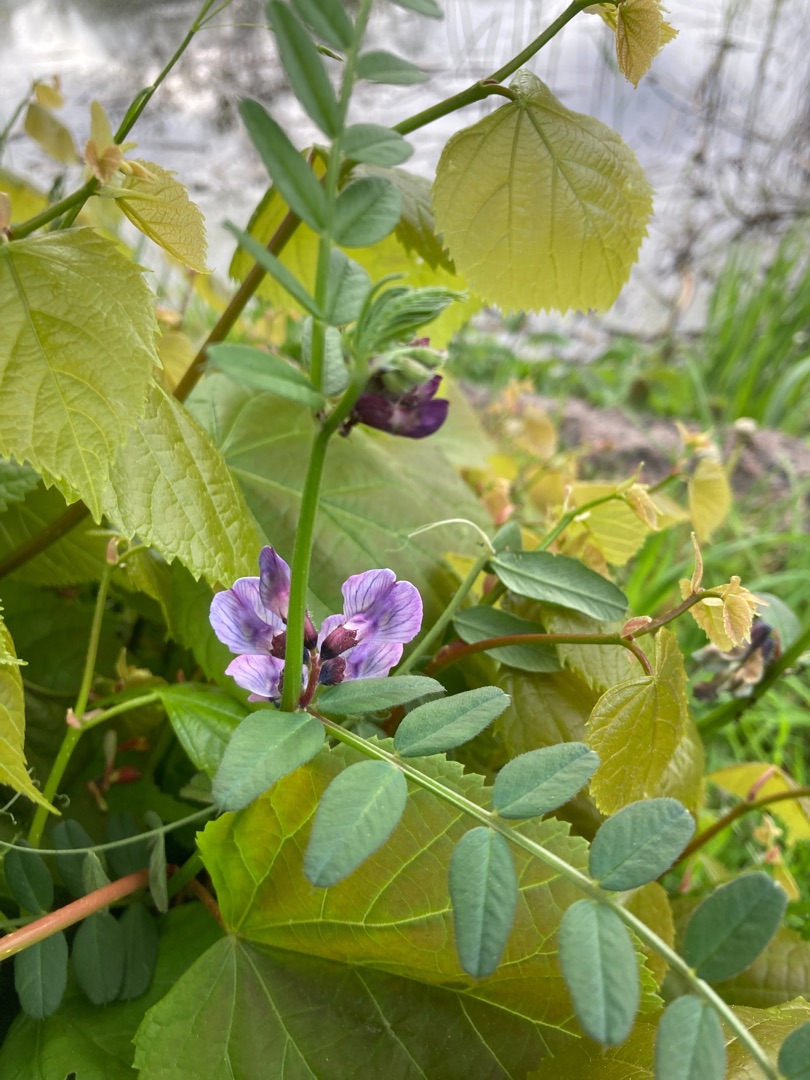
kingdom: Plantae
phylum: Tracheophyta
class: Magnoliopsida
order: Fabales
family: Fabaceae
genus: Vicia
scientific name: Vicia sepium
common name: Gærde-vikke
